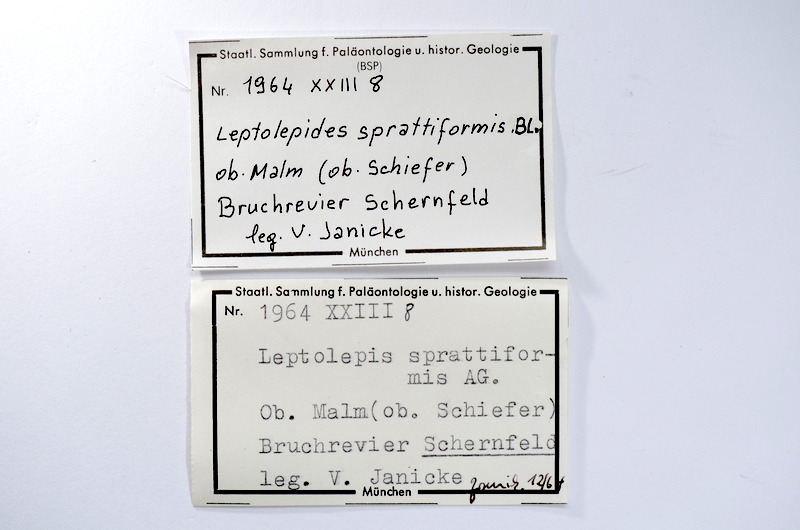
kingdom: Animalia
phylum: Chordata
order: Salmoniformes
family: Orthogonikleithridae
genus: Leptolepides
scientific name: Leptolepides sprattiformis
